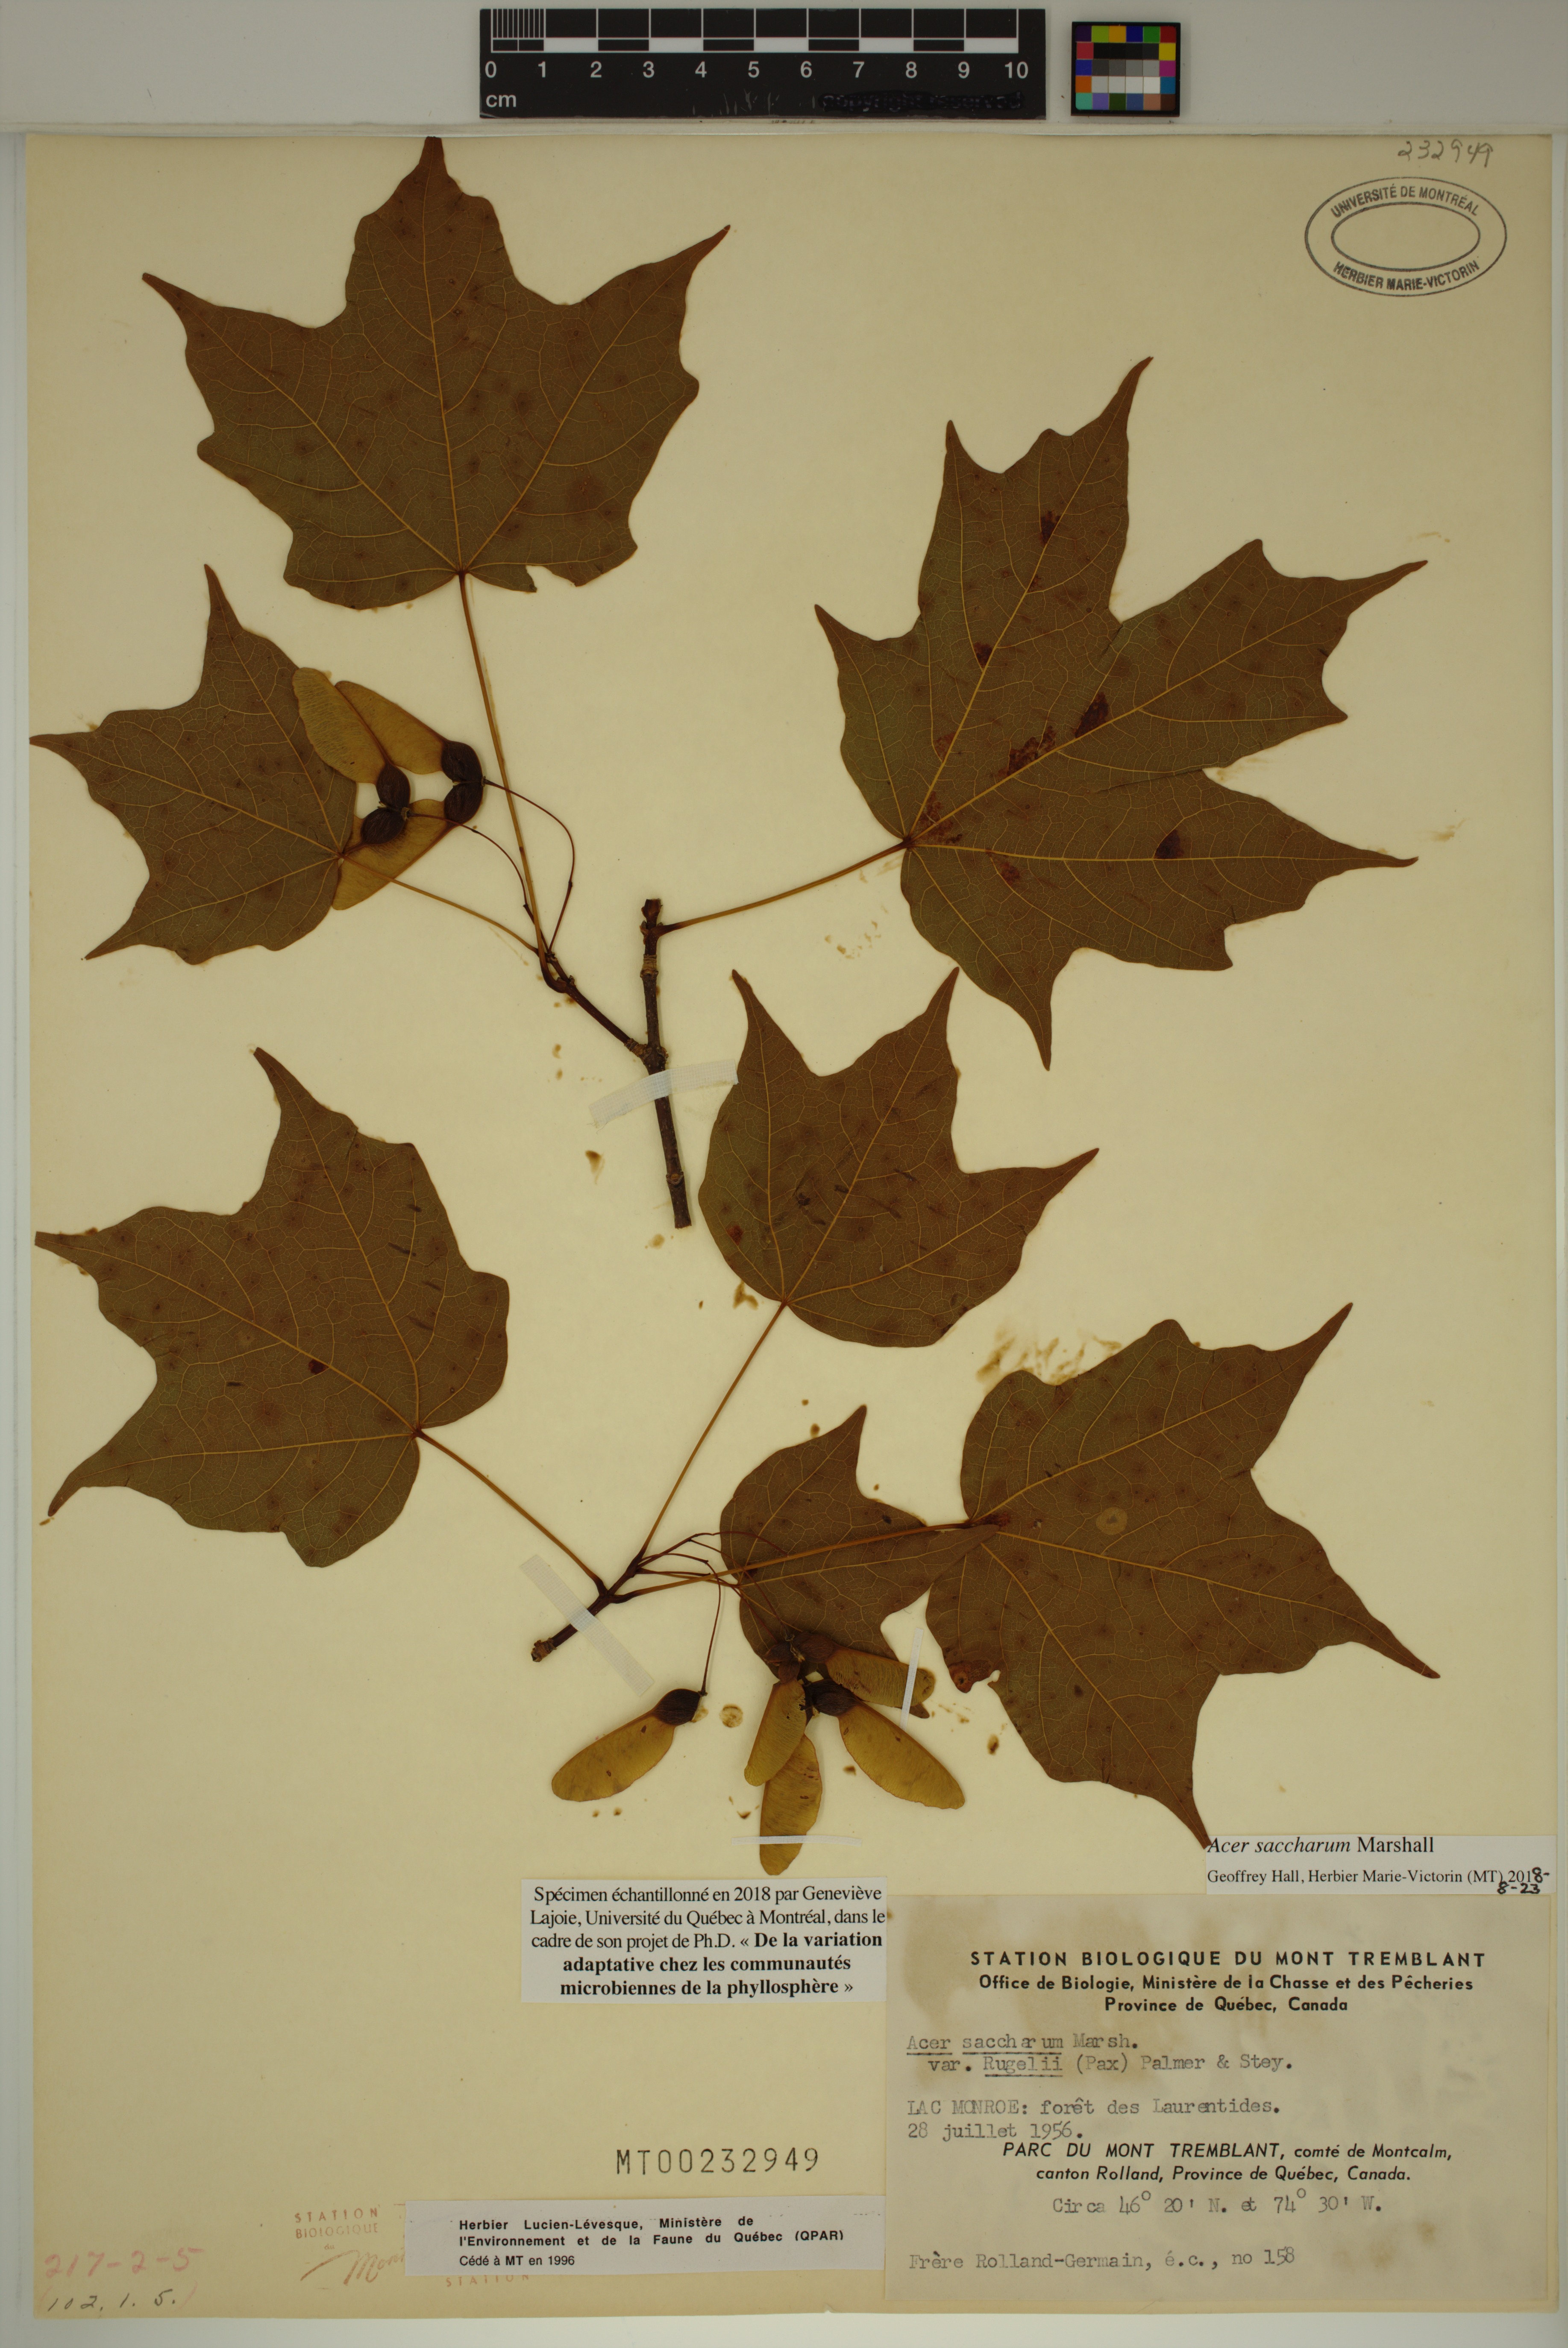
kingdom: Plantae
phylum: Tracheophyta
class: Magnoliopsida
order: Sapindales
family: Sapindaceae
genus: Acer
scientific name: Acer saccharum
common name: Sugar maple
